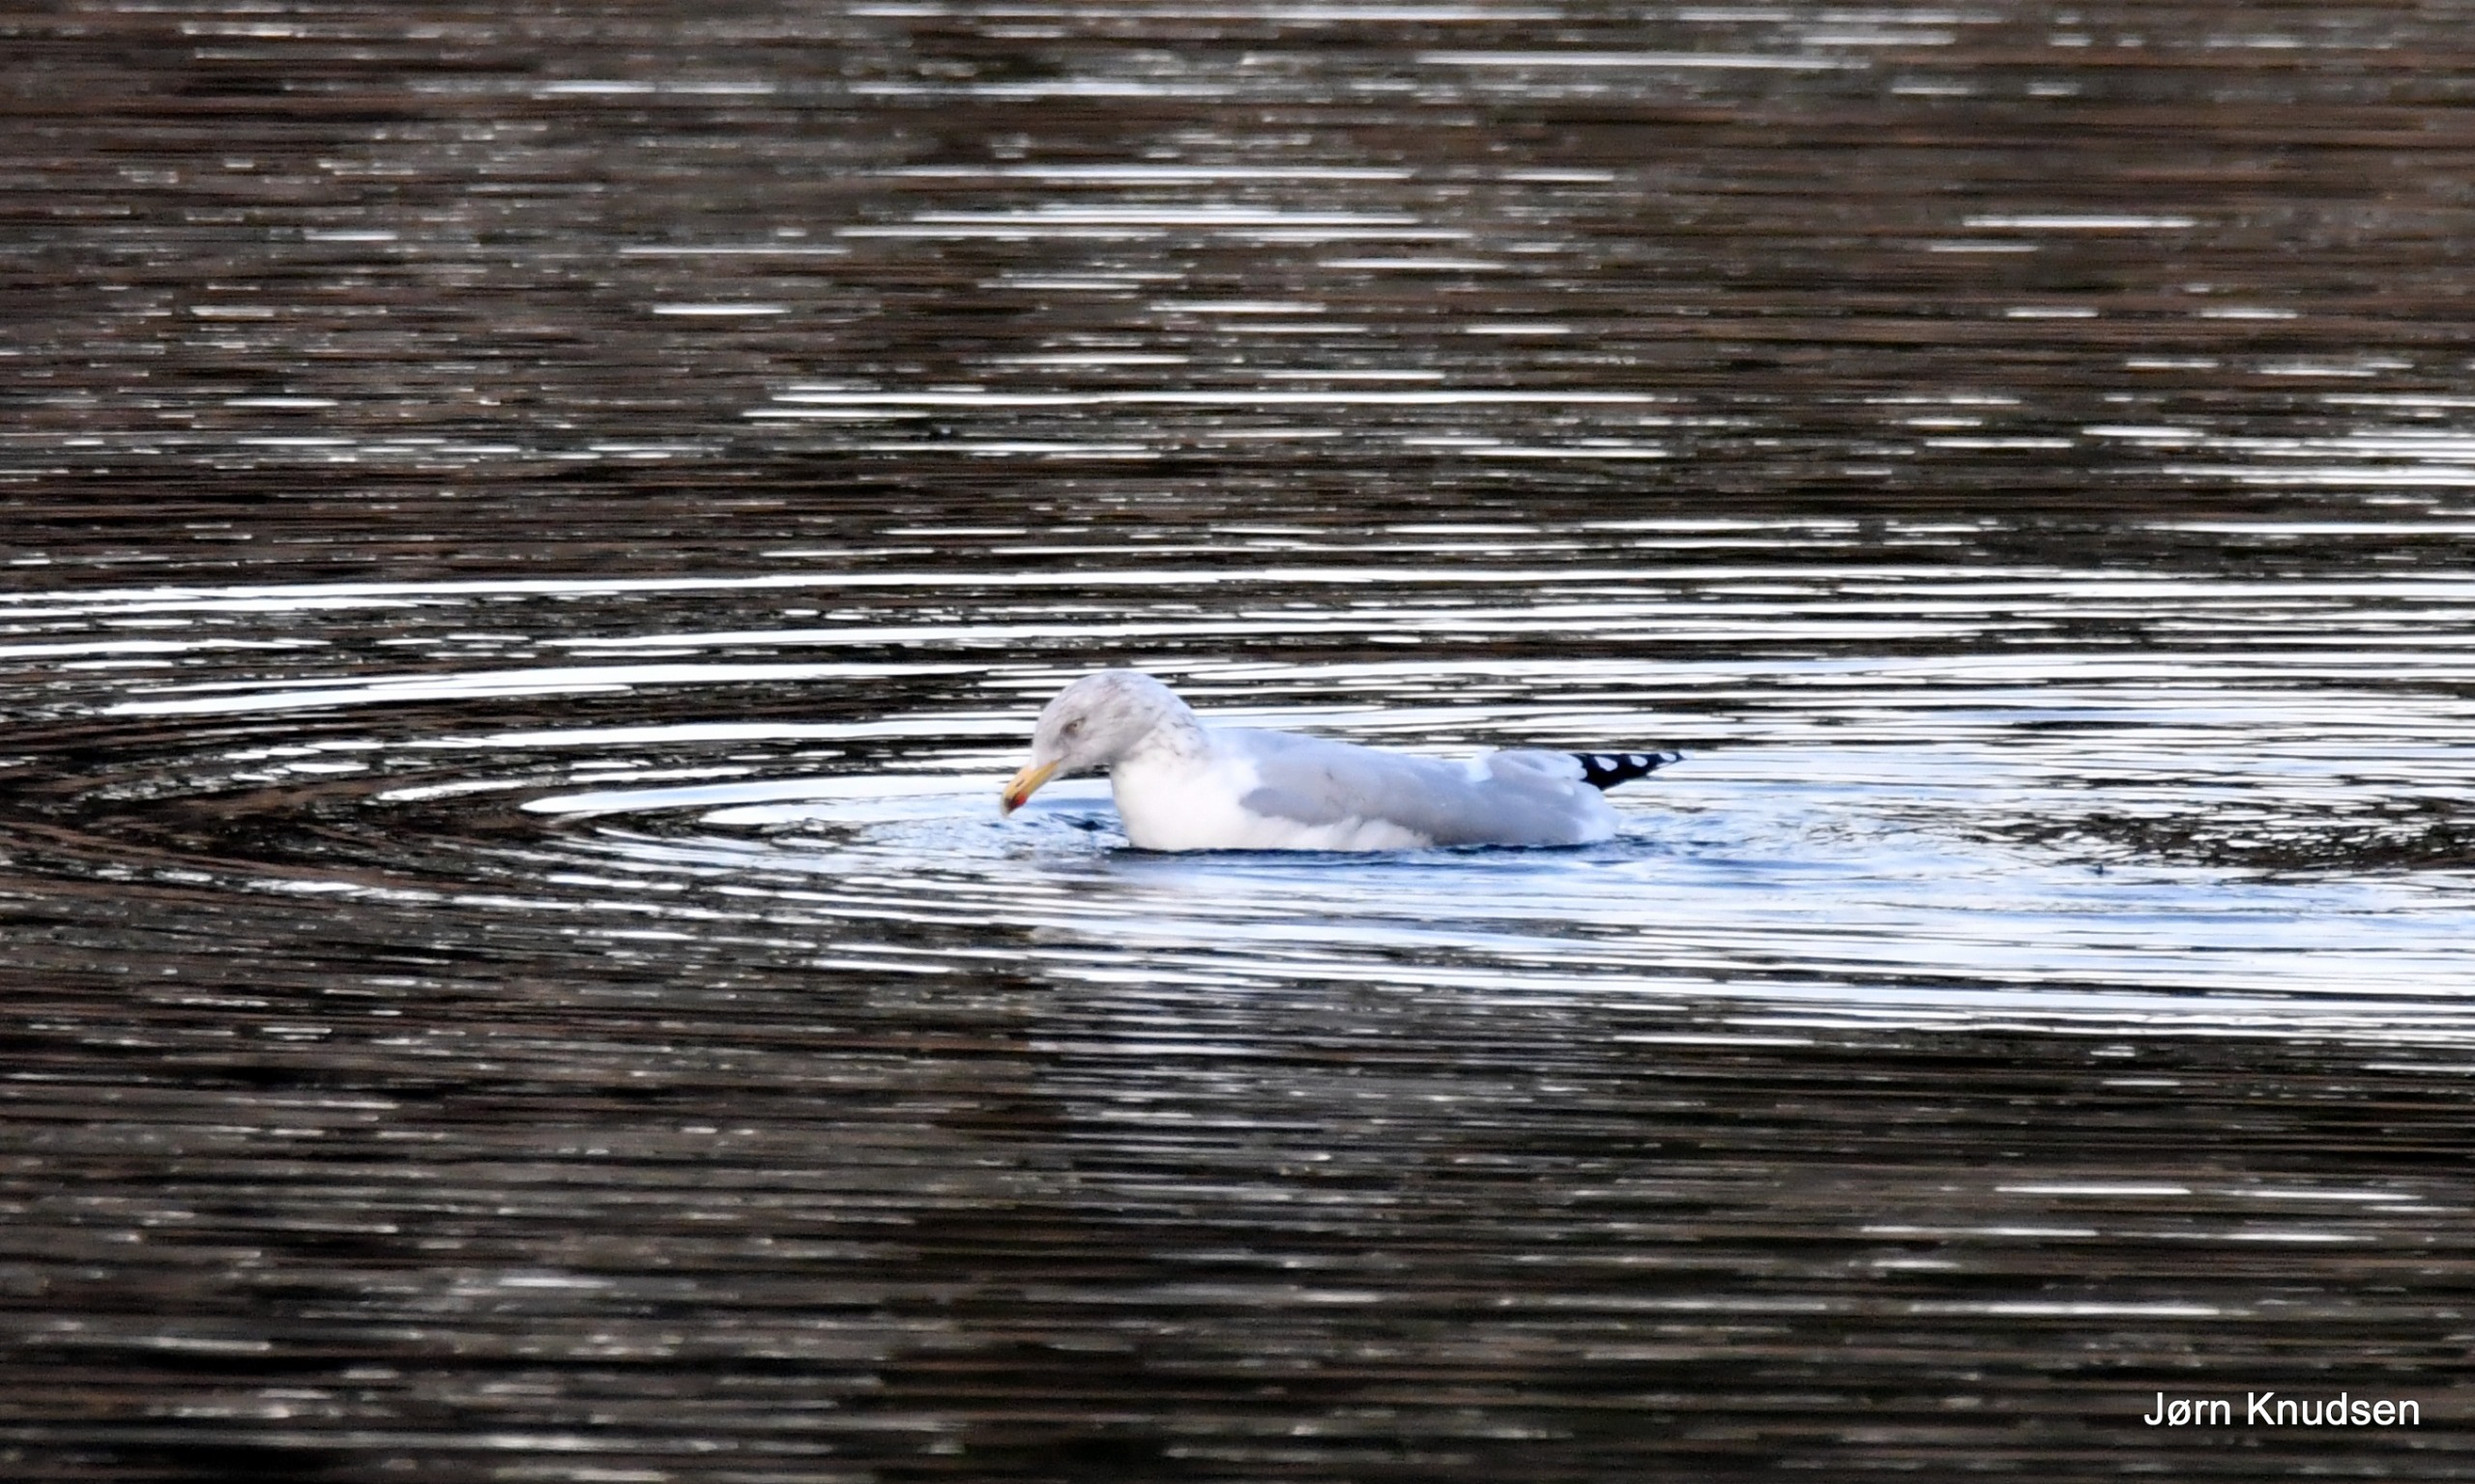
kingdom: Animalia
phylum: Chordata
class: Aves
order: Charadriiformes
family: Laridae
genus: Larus
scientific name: Larus argentatus
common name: Sølvmåge
